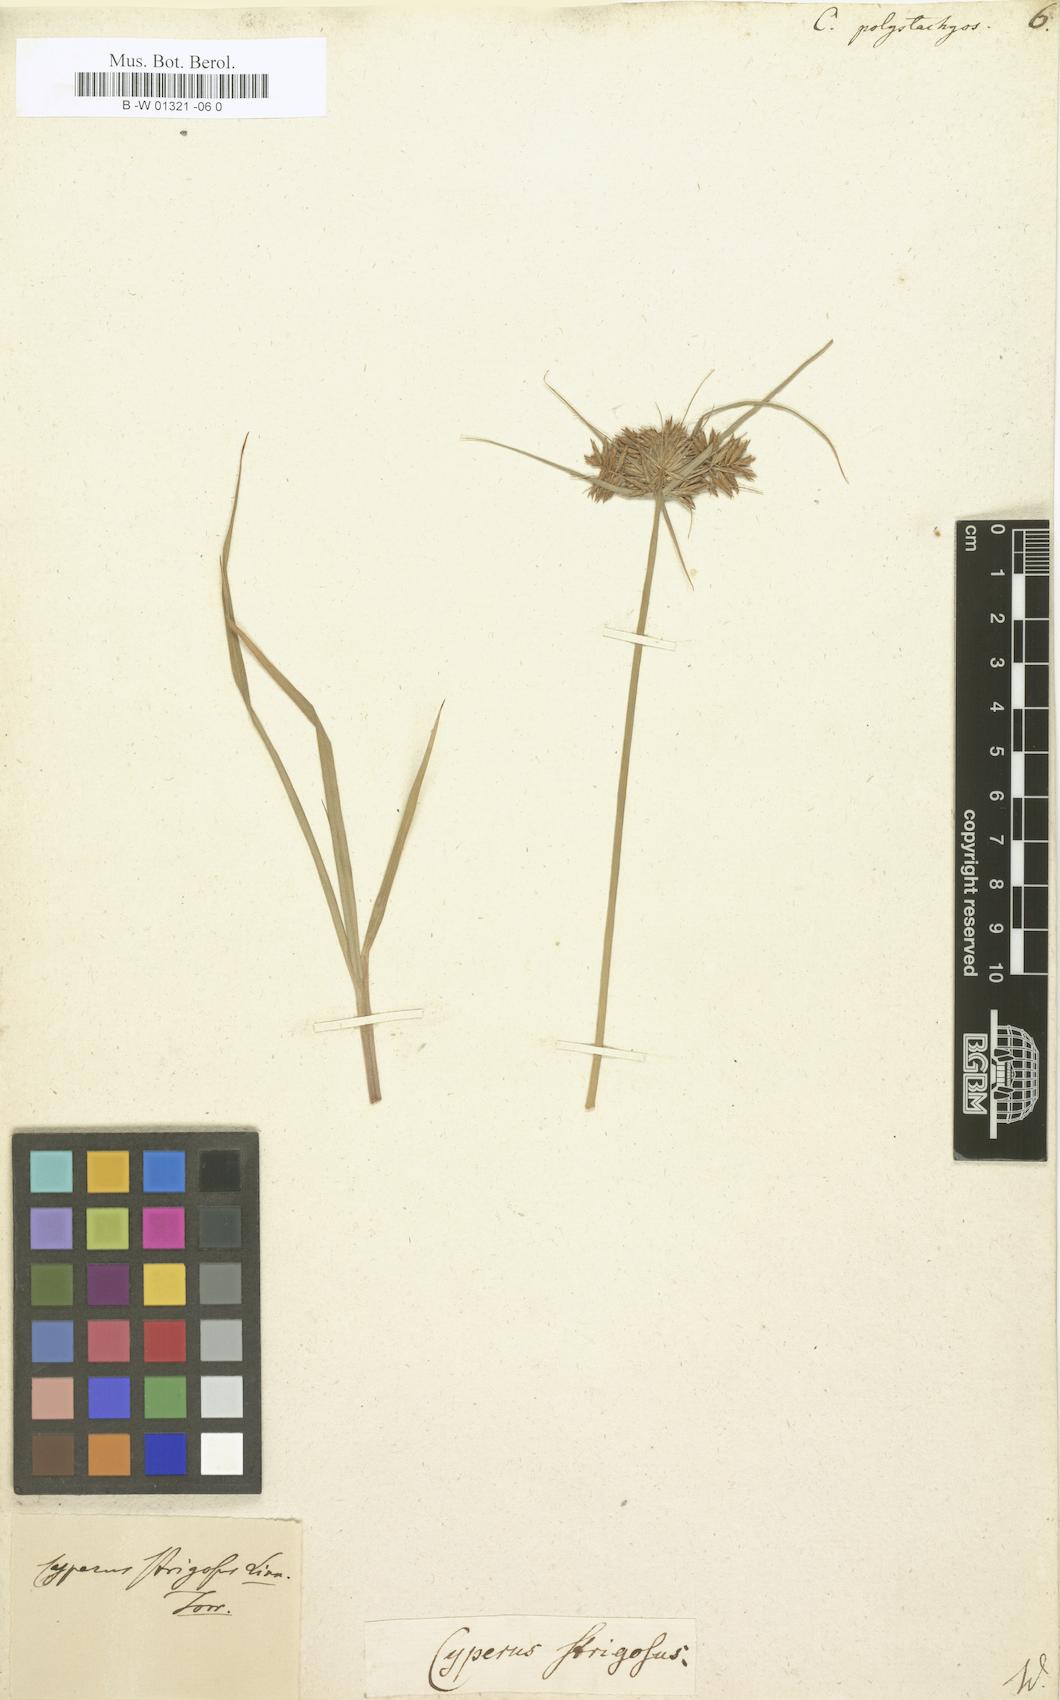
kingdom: Plantae
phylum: Tracheophyta
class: Liliopsida
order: Poales
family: Cyperaceae
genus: Cyperus
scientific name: Cyperus polystachyos
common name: Bunchy flat sedge
